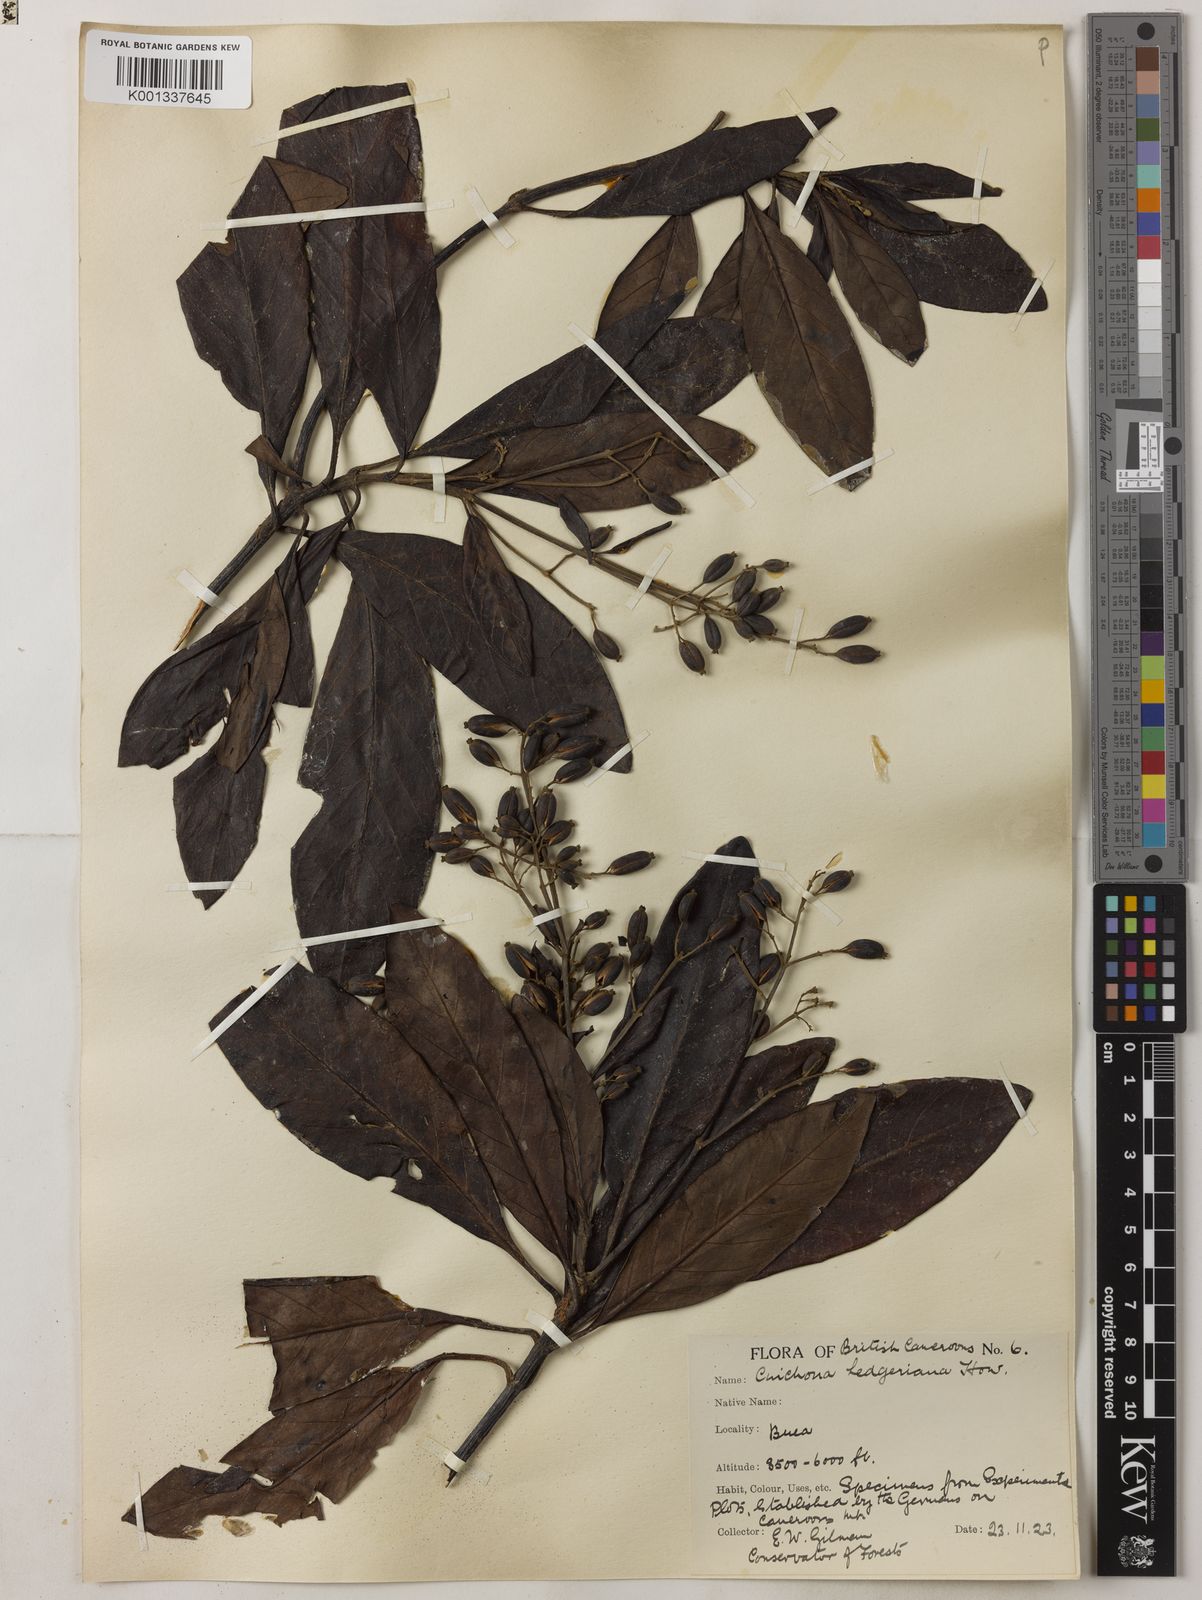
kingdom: Plantae
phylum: Tracheophyta
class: Magnoliopsida
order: Gentianales
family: Rubiaceae
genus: Cinchona
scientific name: Cinchona calisaya
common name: Ledgerbark
